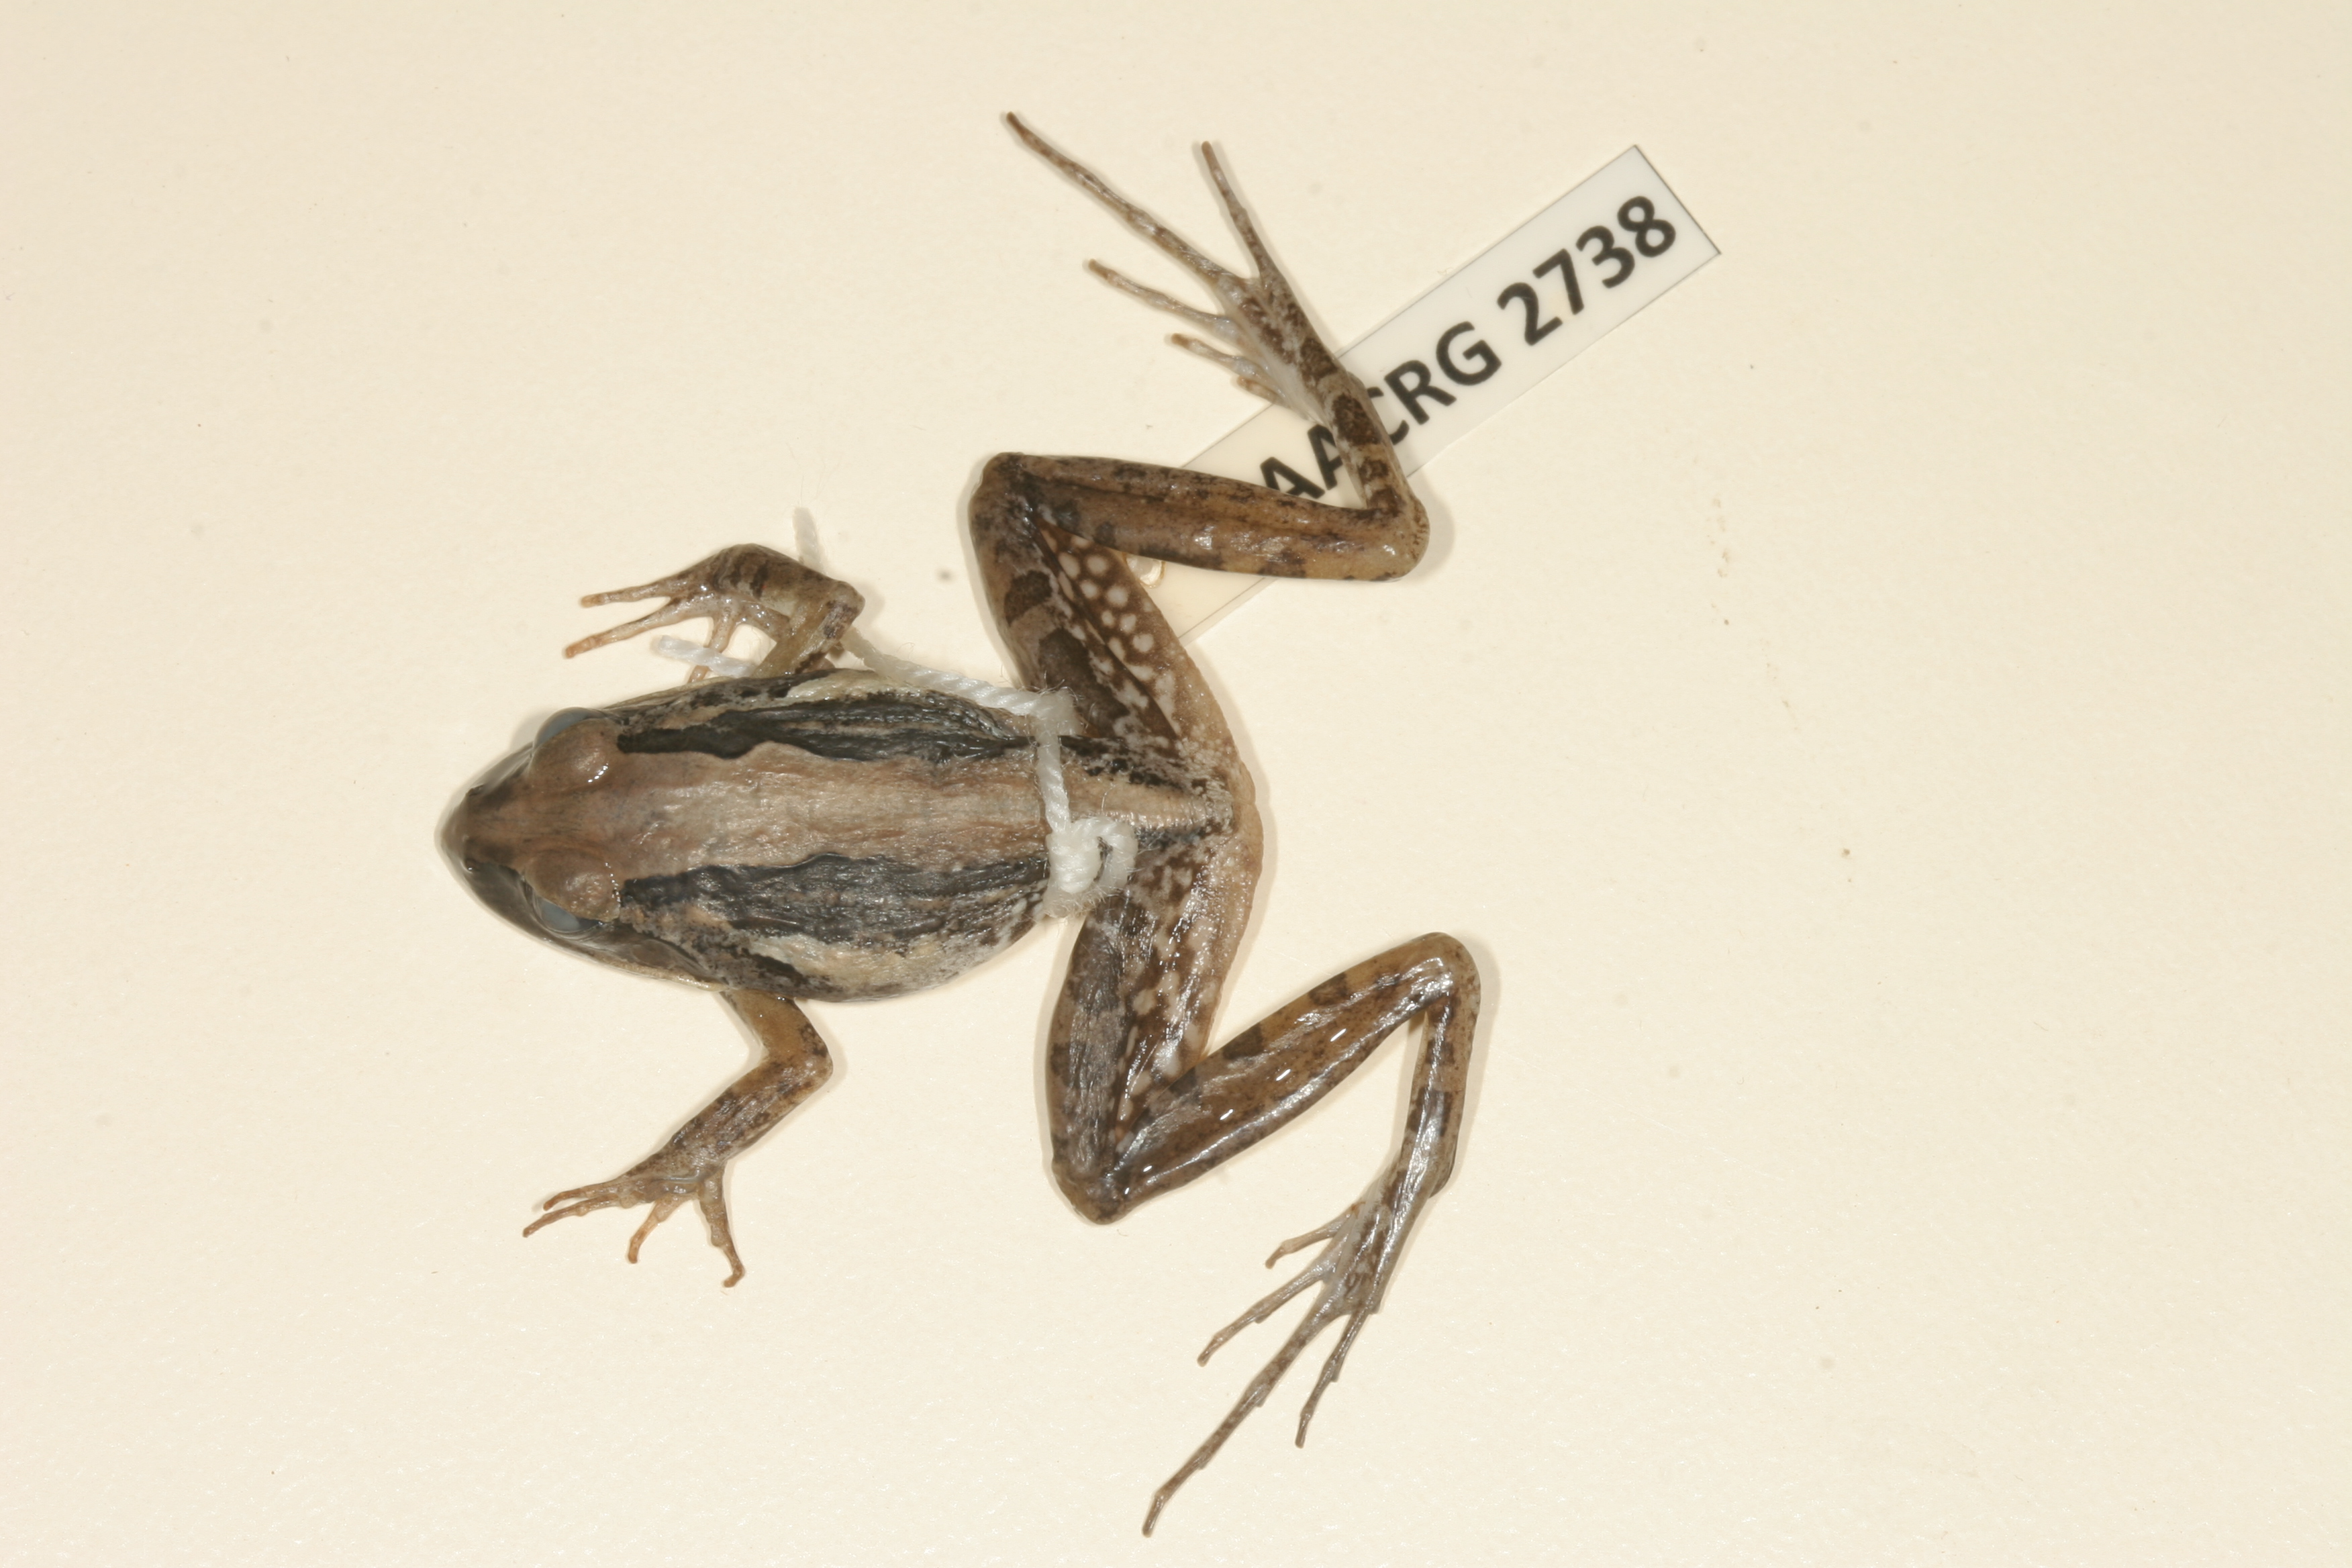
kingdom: Animalia
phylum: Chordata
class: Amphibia
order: Anura
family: Pyxicephalidae
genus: Strongylopus
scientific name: Strongylopus grayii
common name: Gray's stream frog
